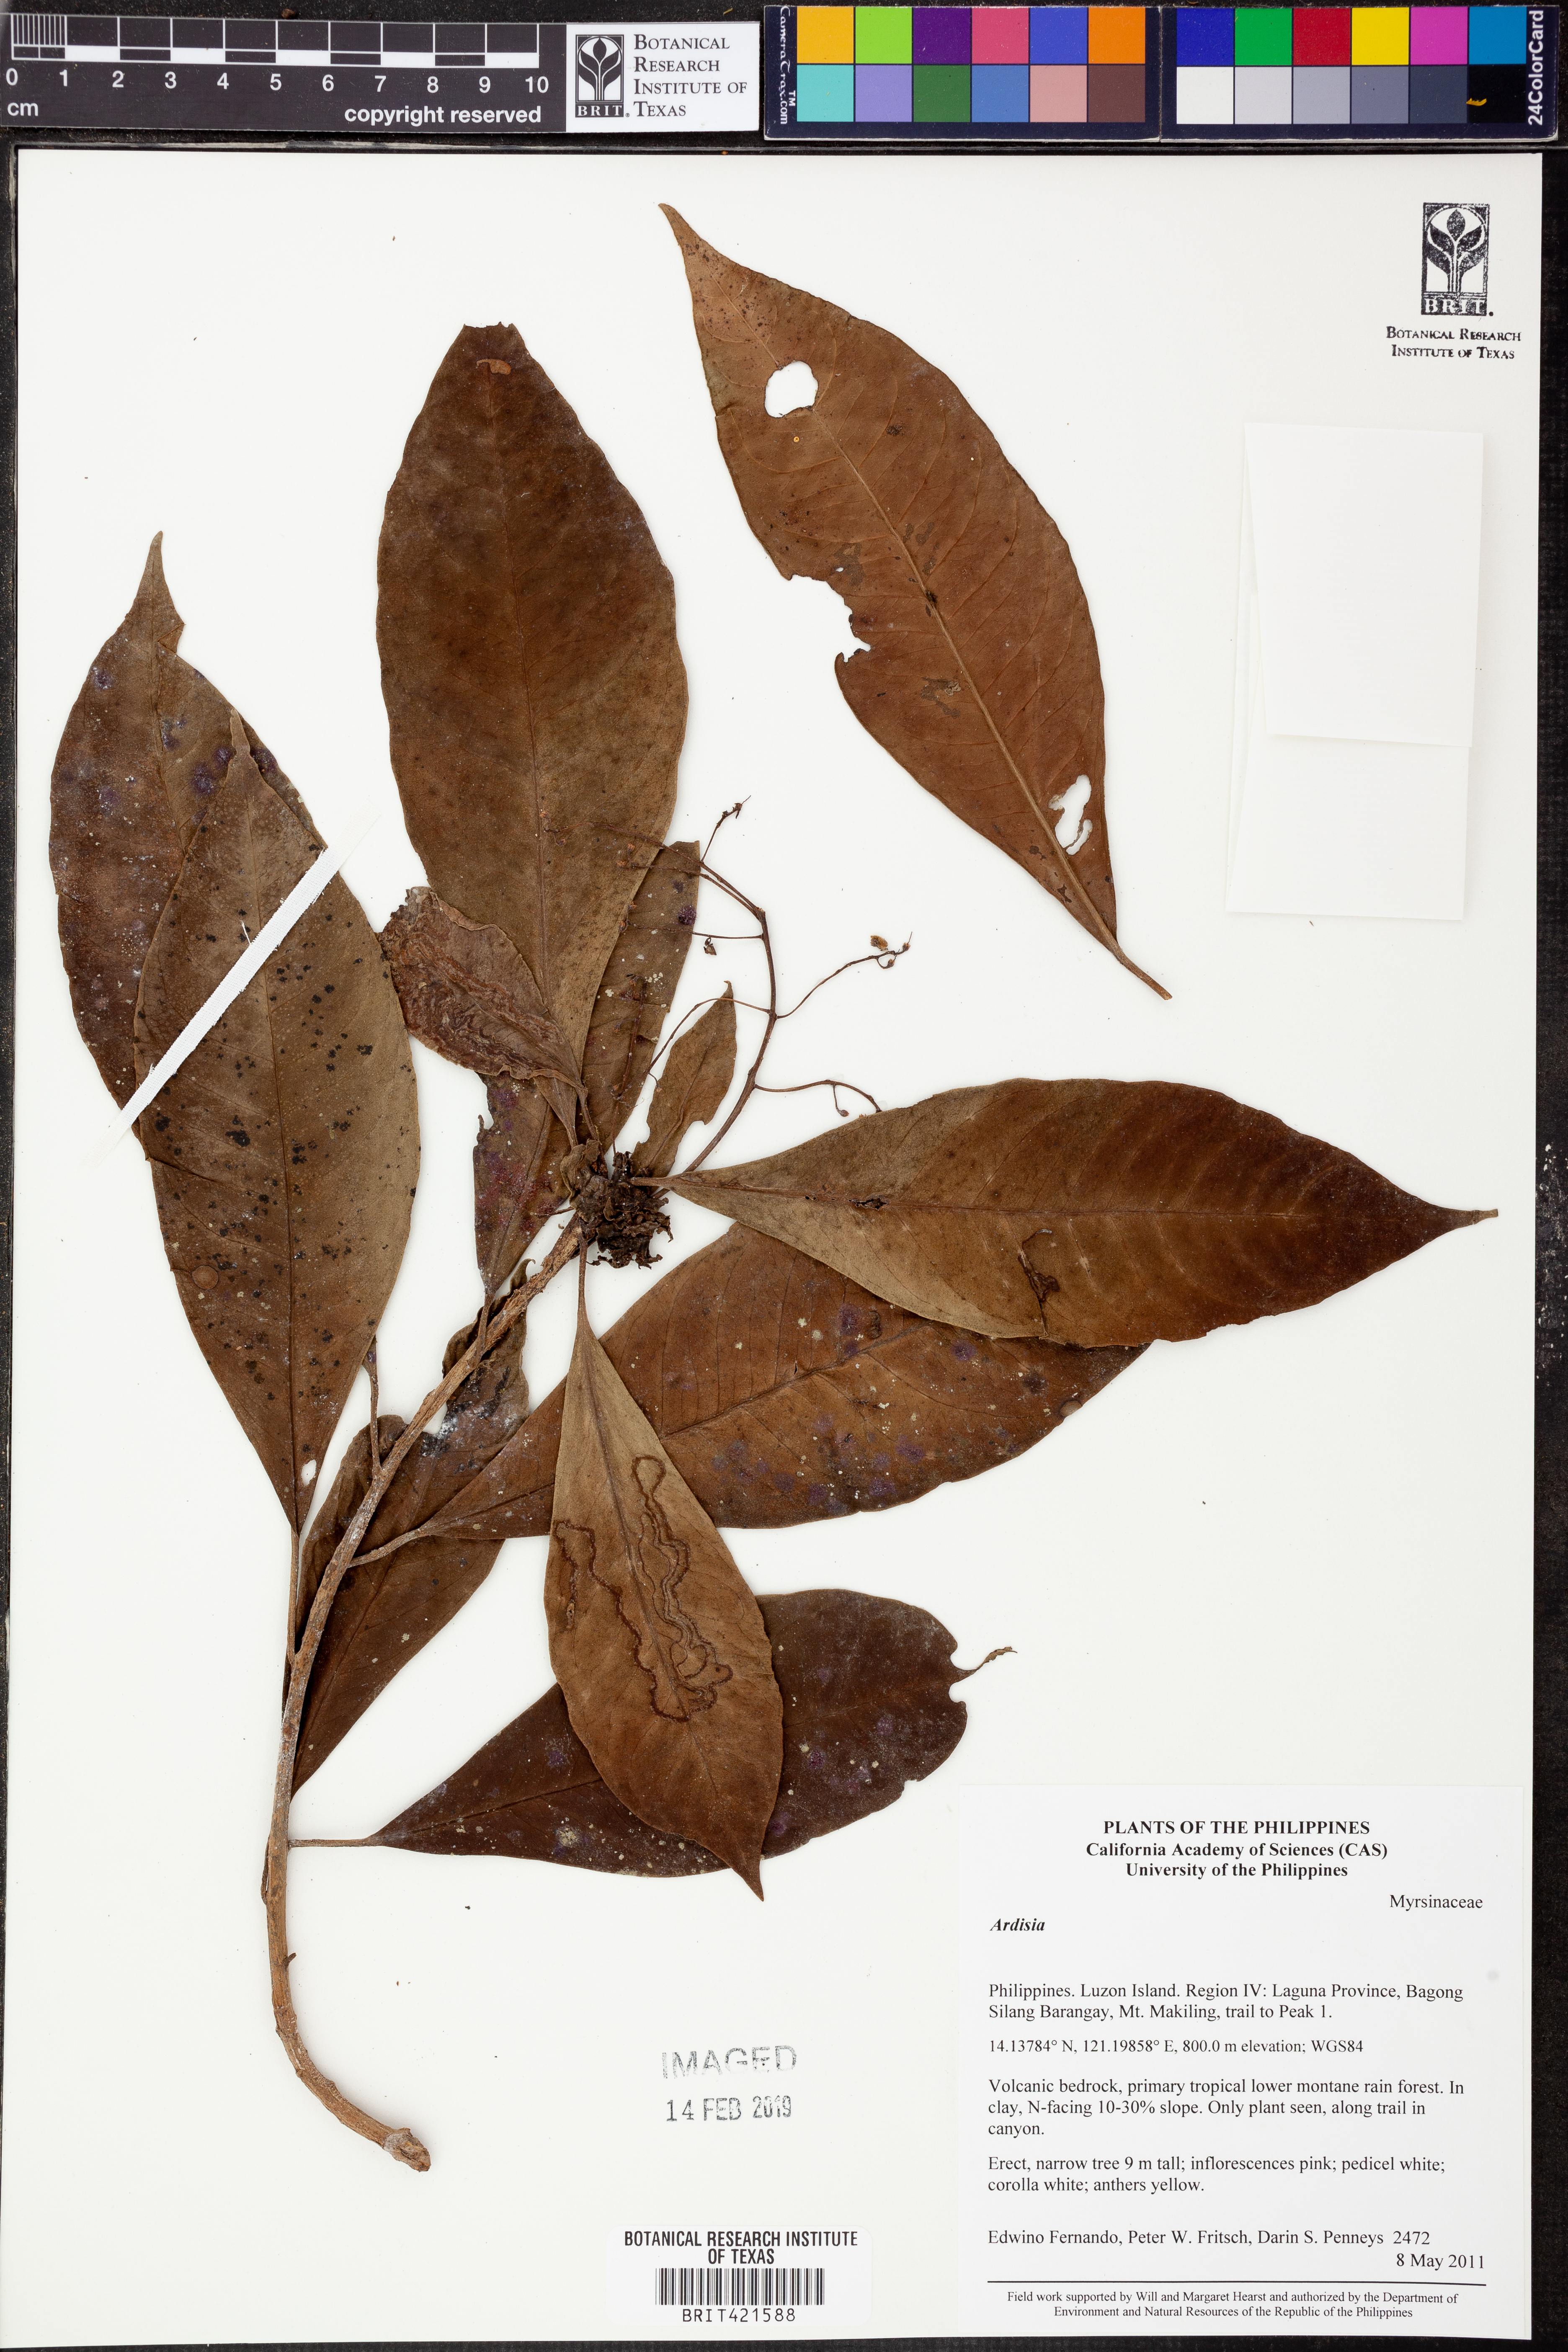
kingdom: Plantae
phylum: Tracheophyta
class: Magnoliopsida
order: Ericales
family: Primulaceae
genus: Ardisia
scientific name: Ardisia
